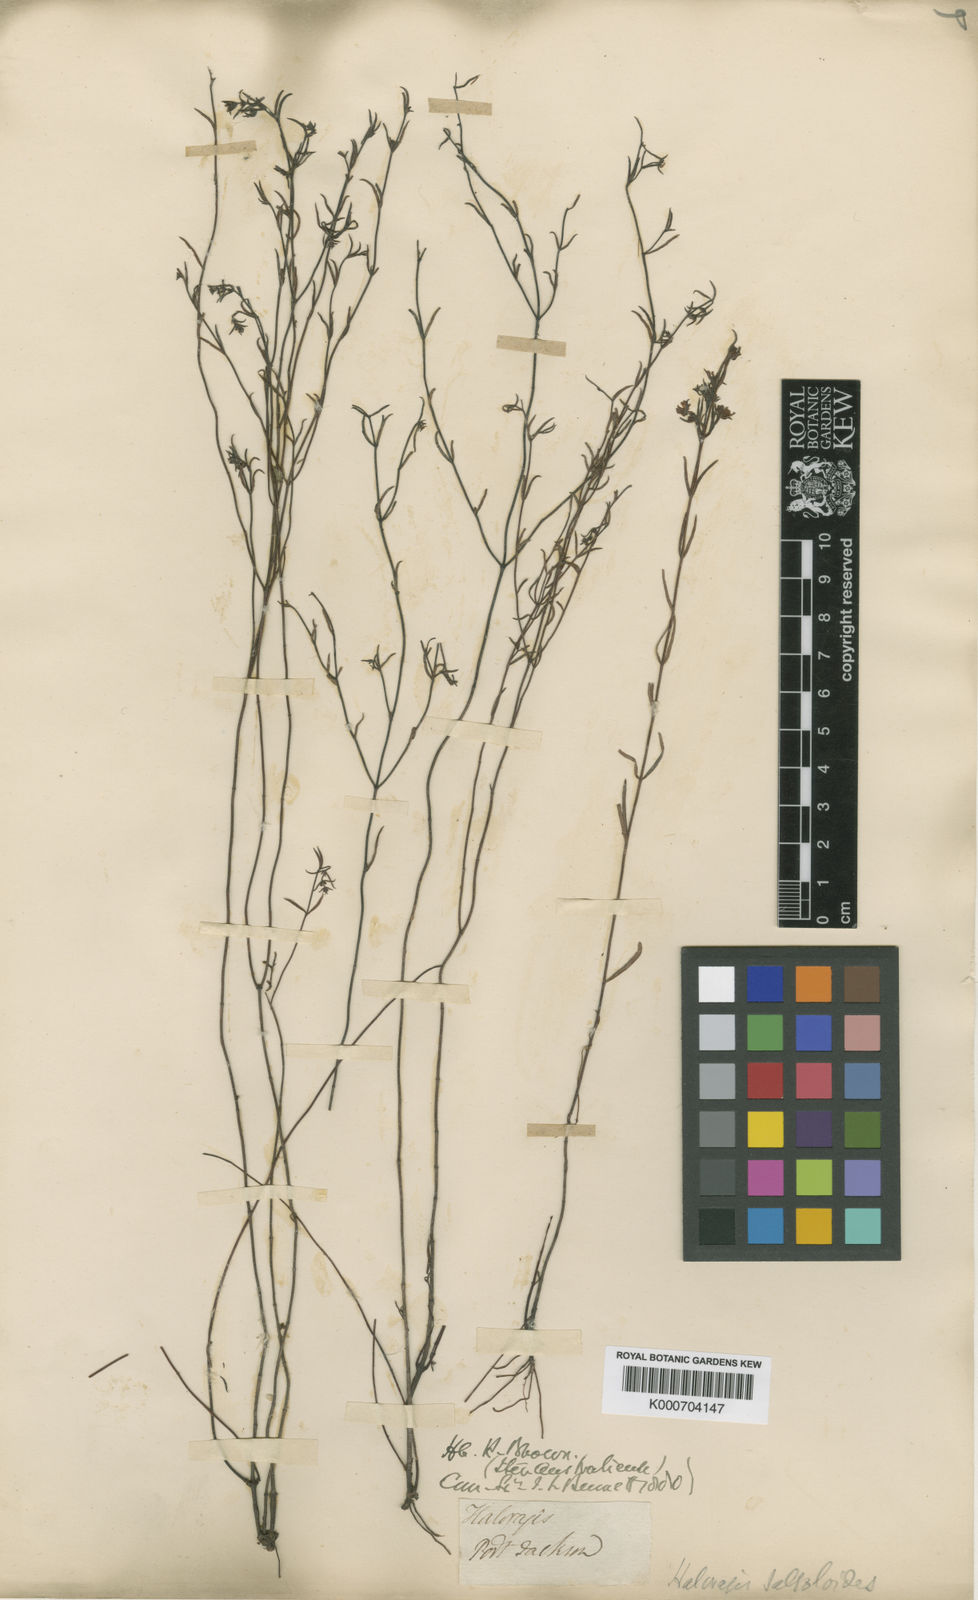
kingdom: Plantae
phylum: Tracheophyta
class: Magnoliopsida
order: Saxifragales
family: Haloragaceae
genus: Gonocarpus
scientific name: Gonocarpus salsoloides
